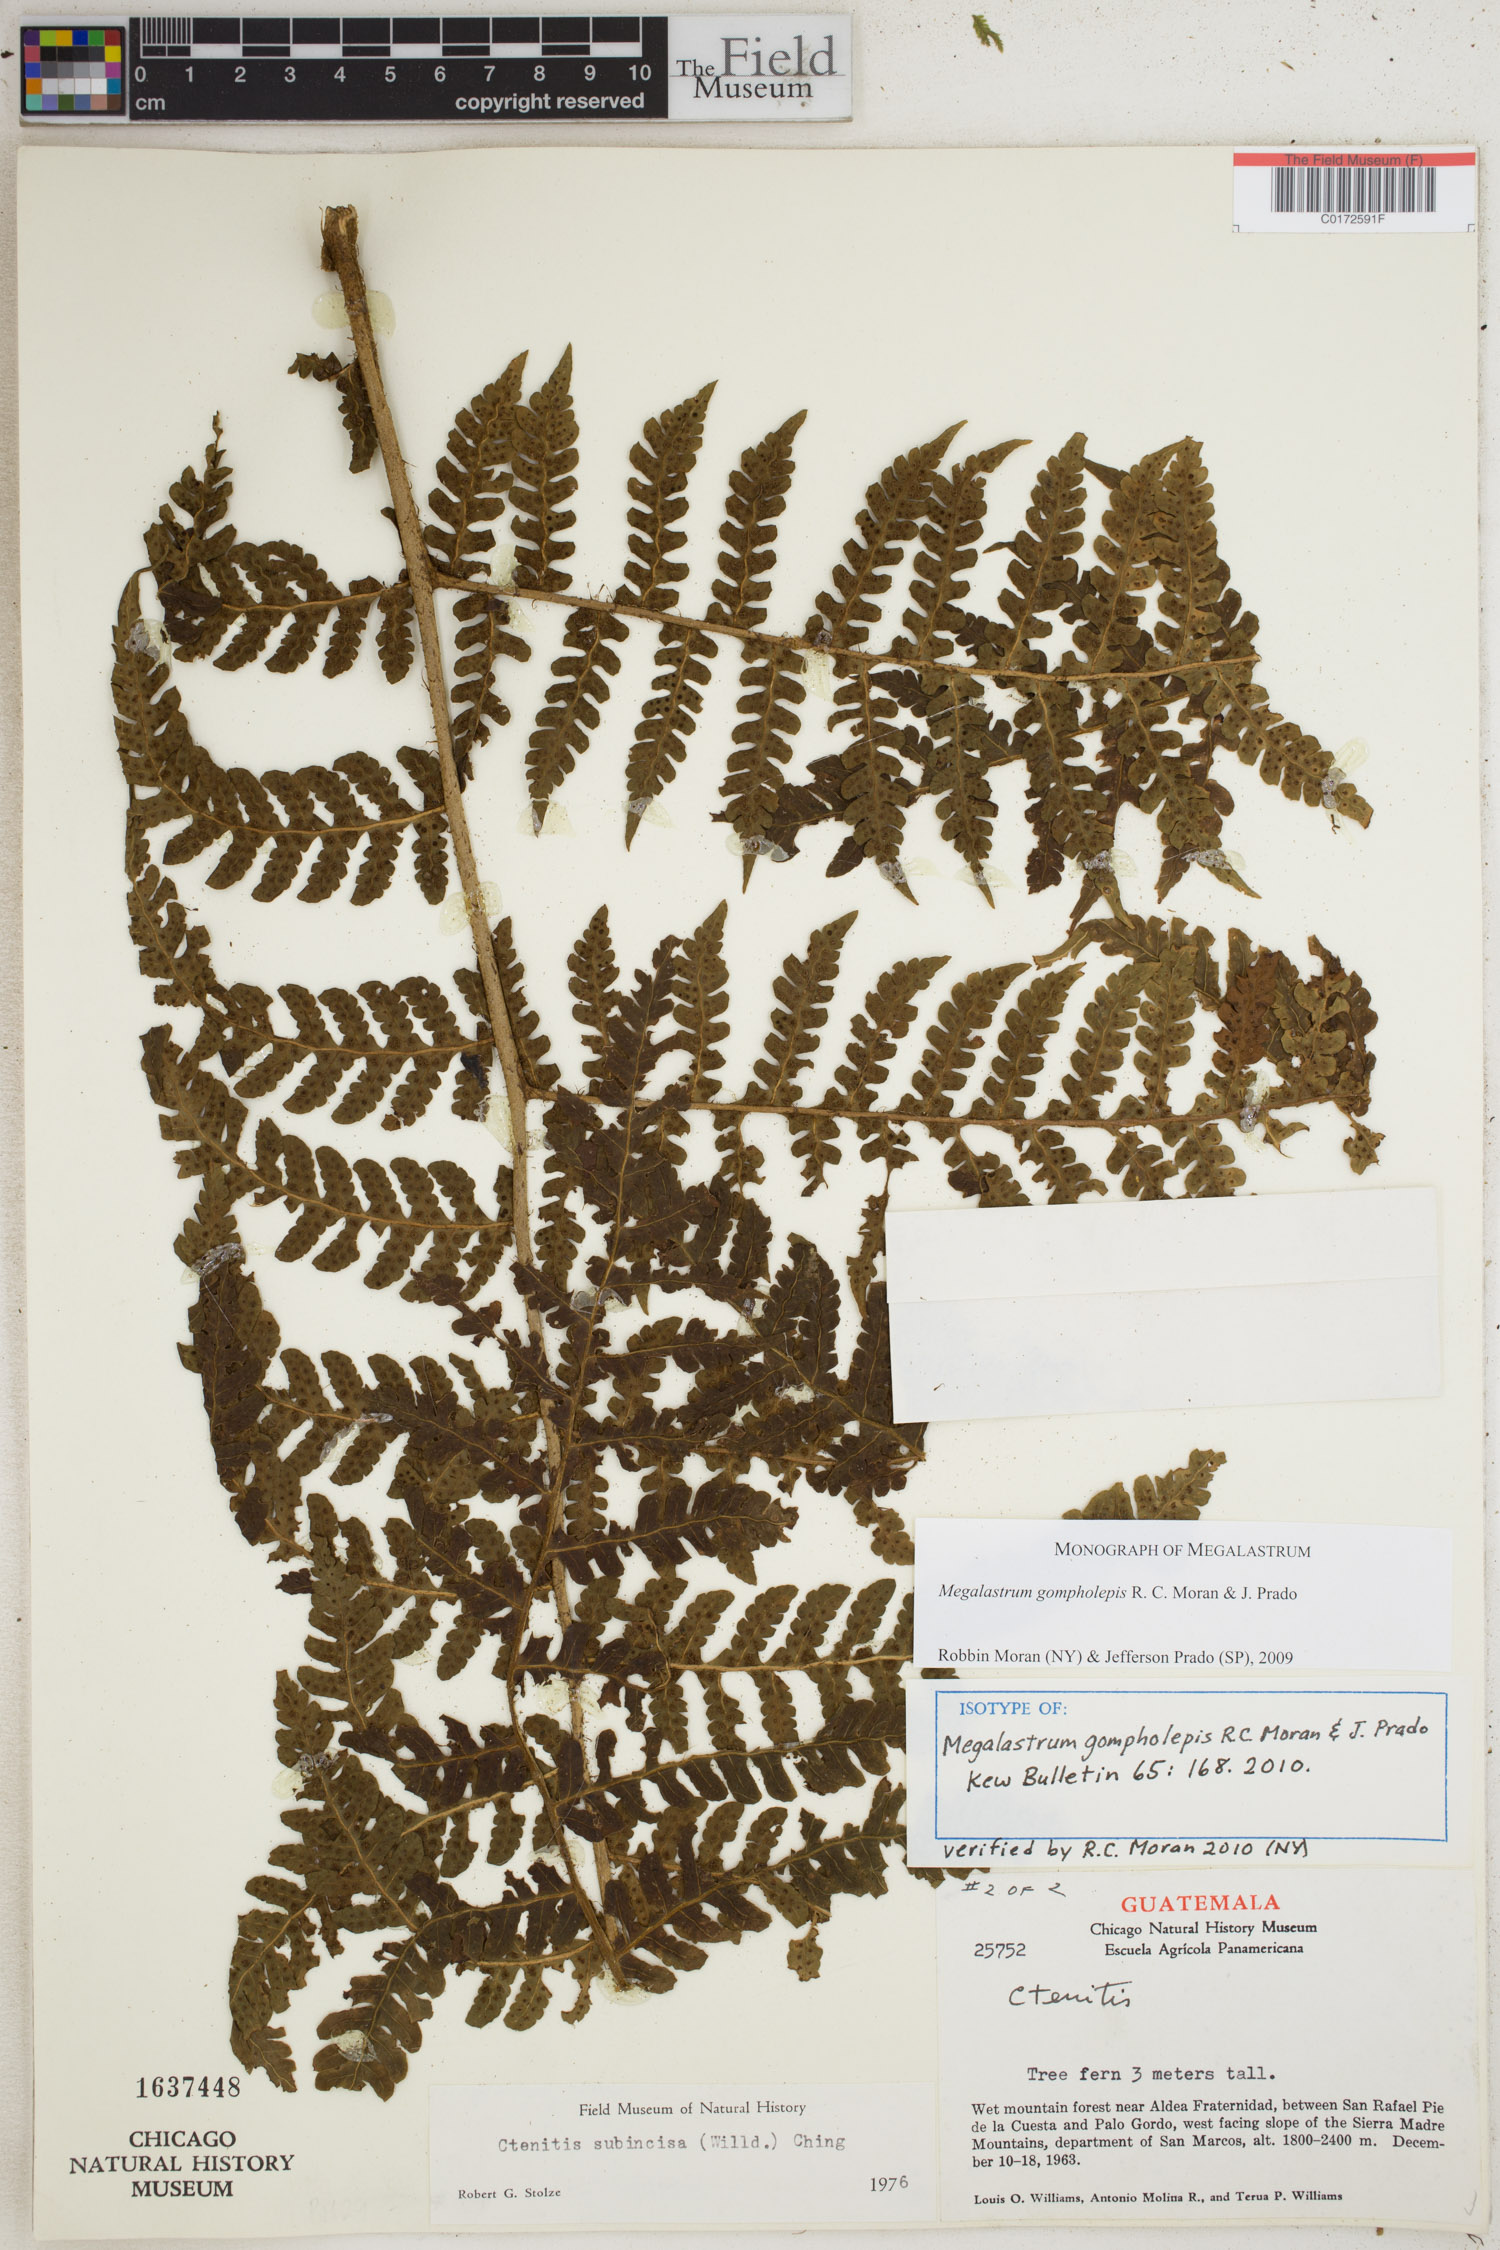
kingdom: Plantae
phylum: Tracheophyta
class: Polypodiopsida
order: Polypodiales
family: Dryopteridaceae
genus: Megalastrum
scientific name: Megalastrum gompholepis
